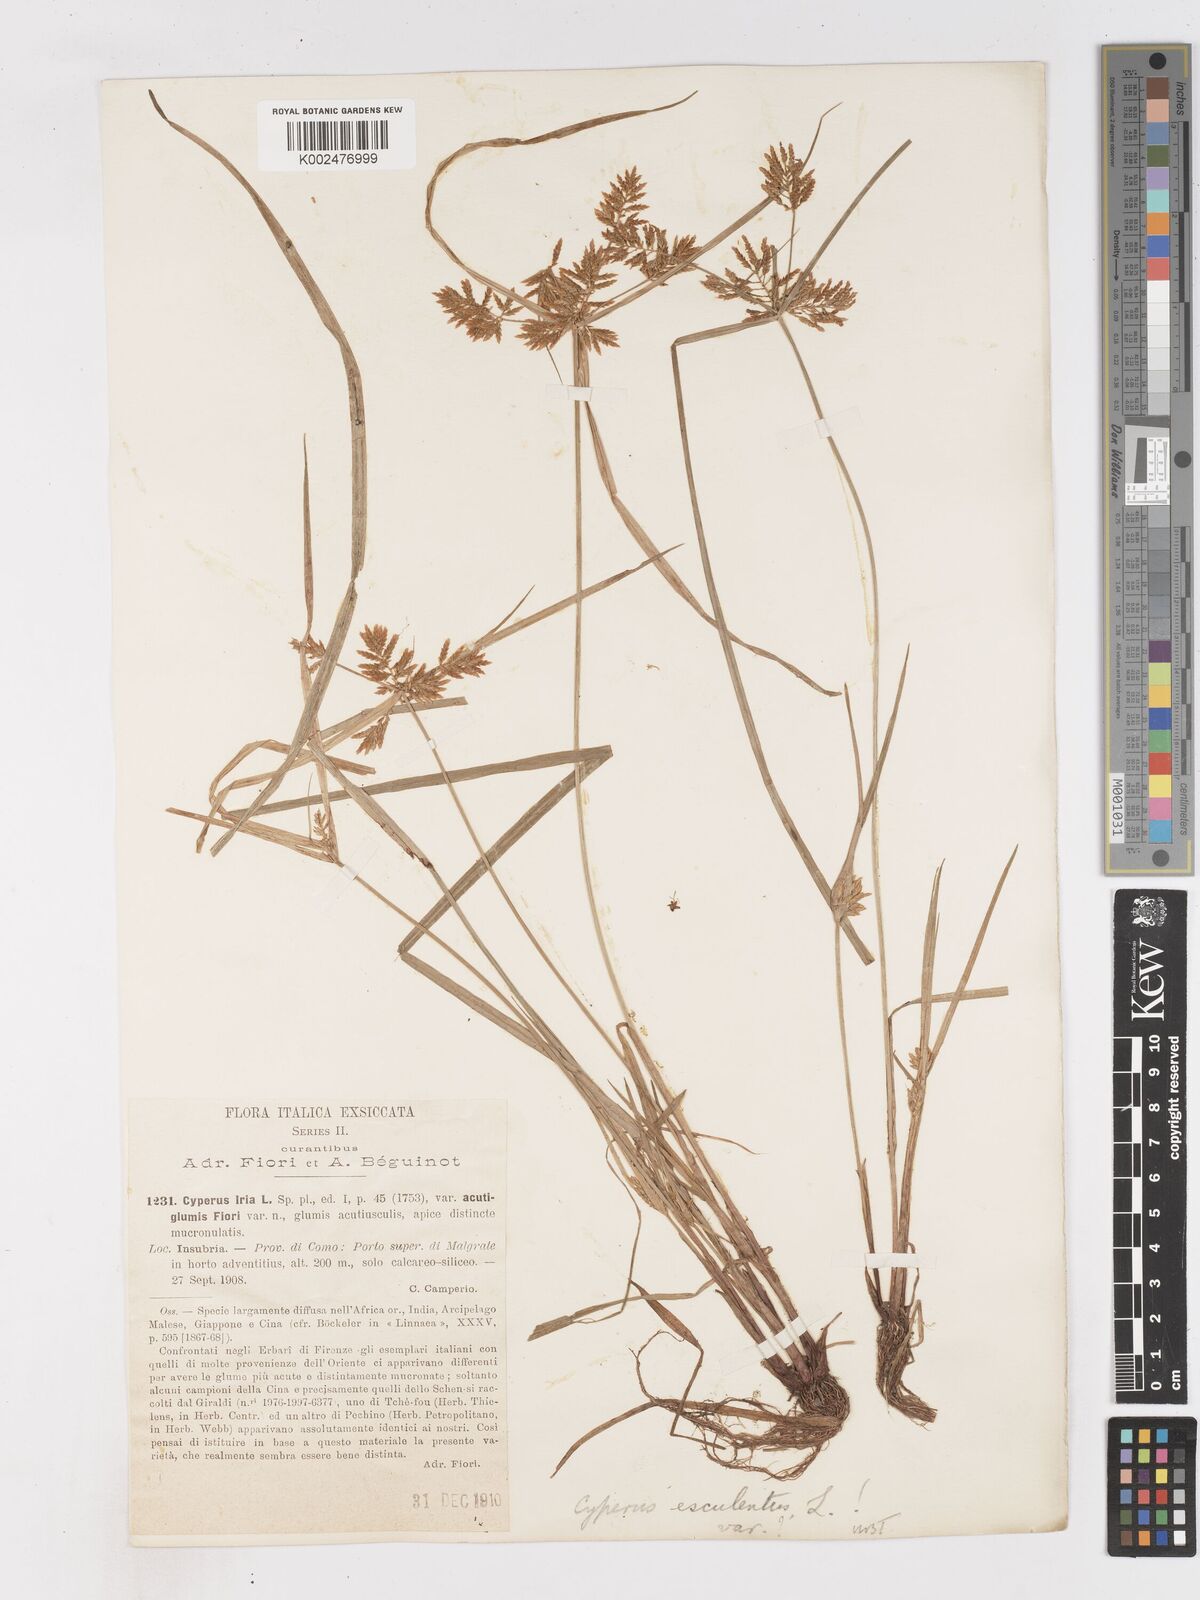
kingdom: Plantae
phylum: Tracheophyta
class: Liliopsida
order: Poales
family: Cyperaceae
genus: Cyperus
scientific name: Cyperus esculentus
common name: Yellow nutsedge
